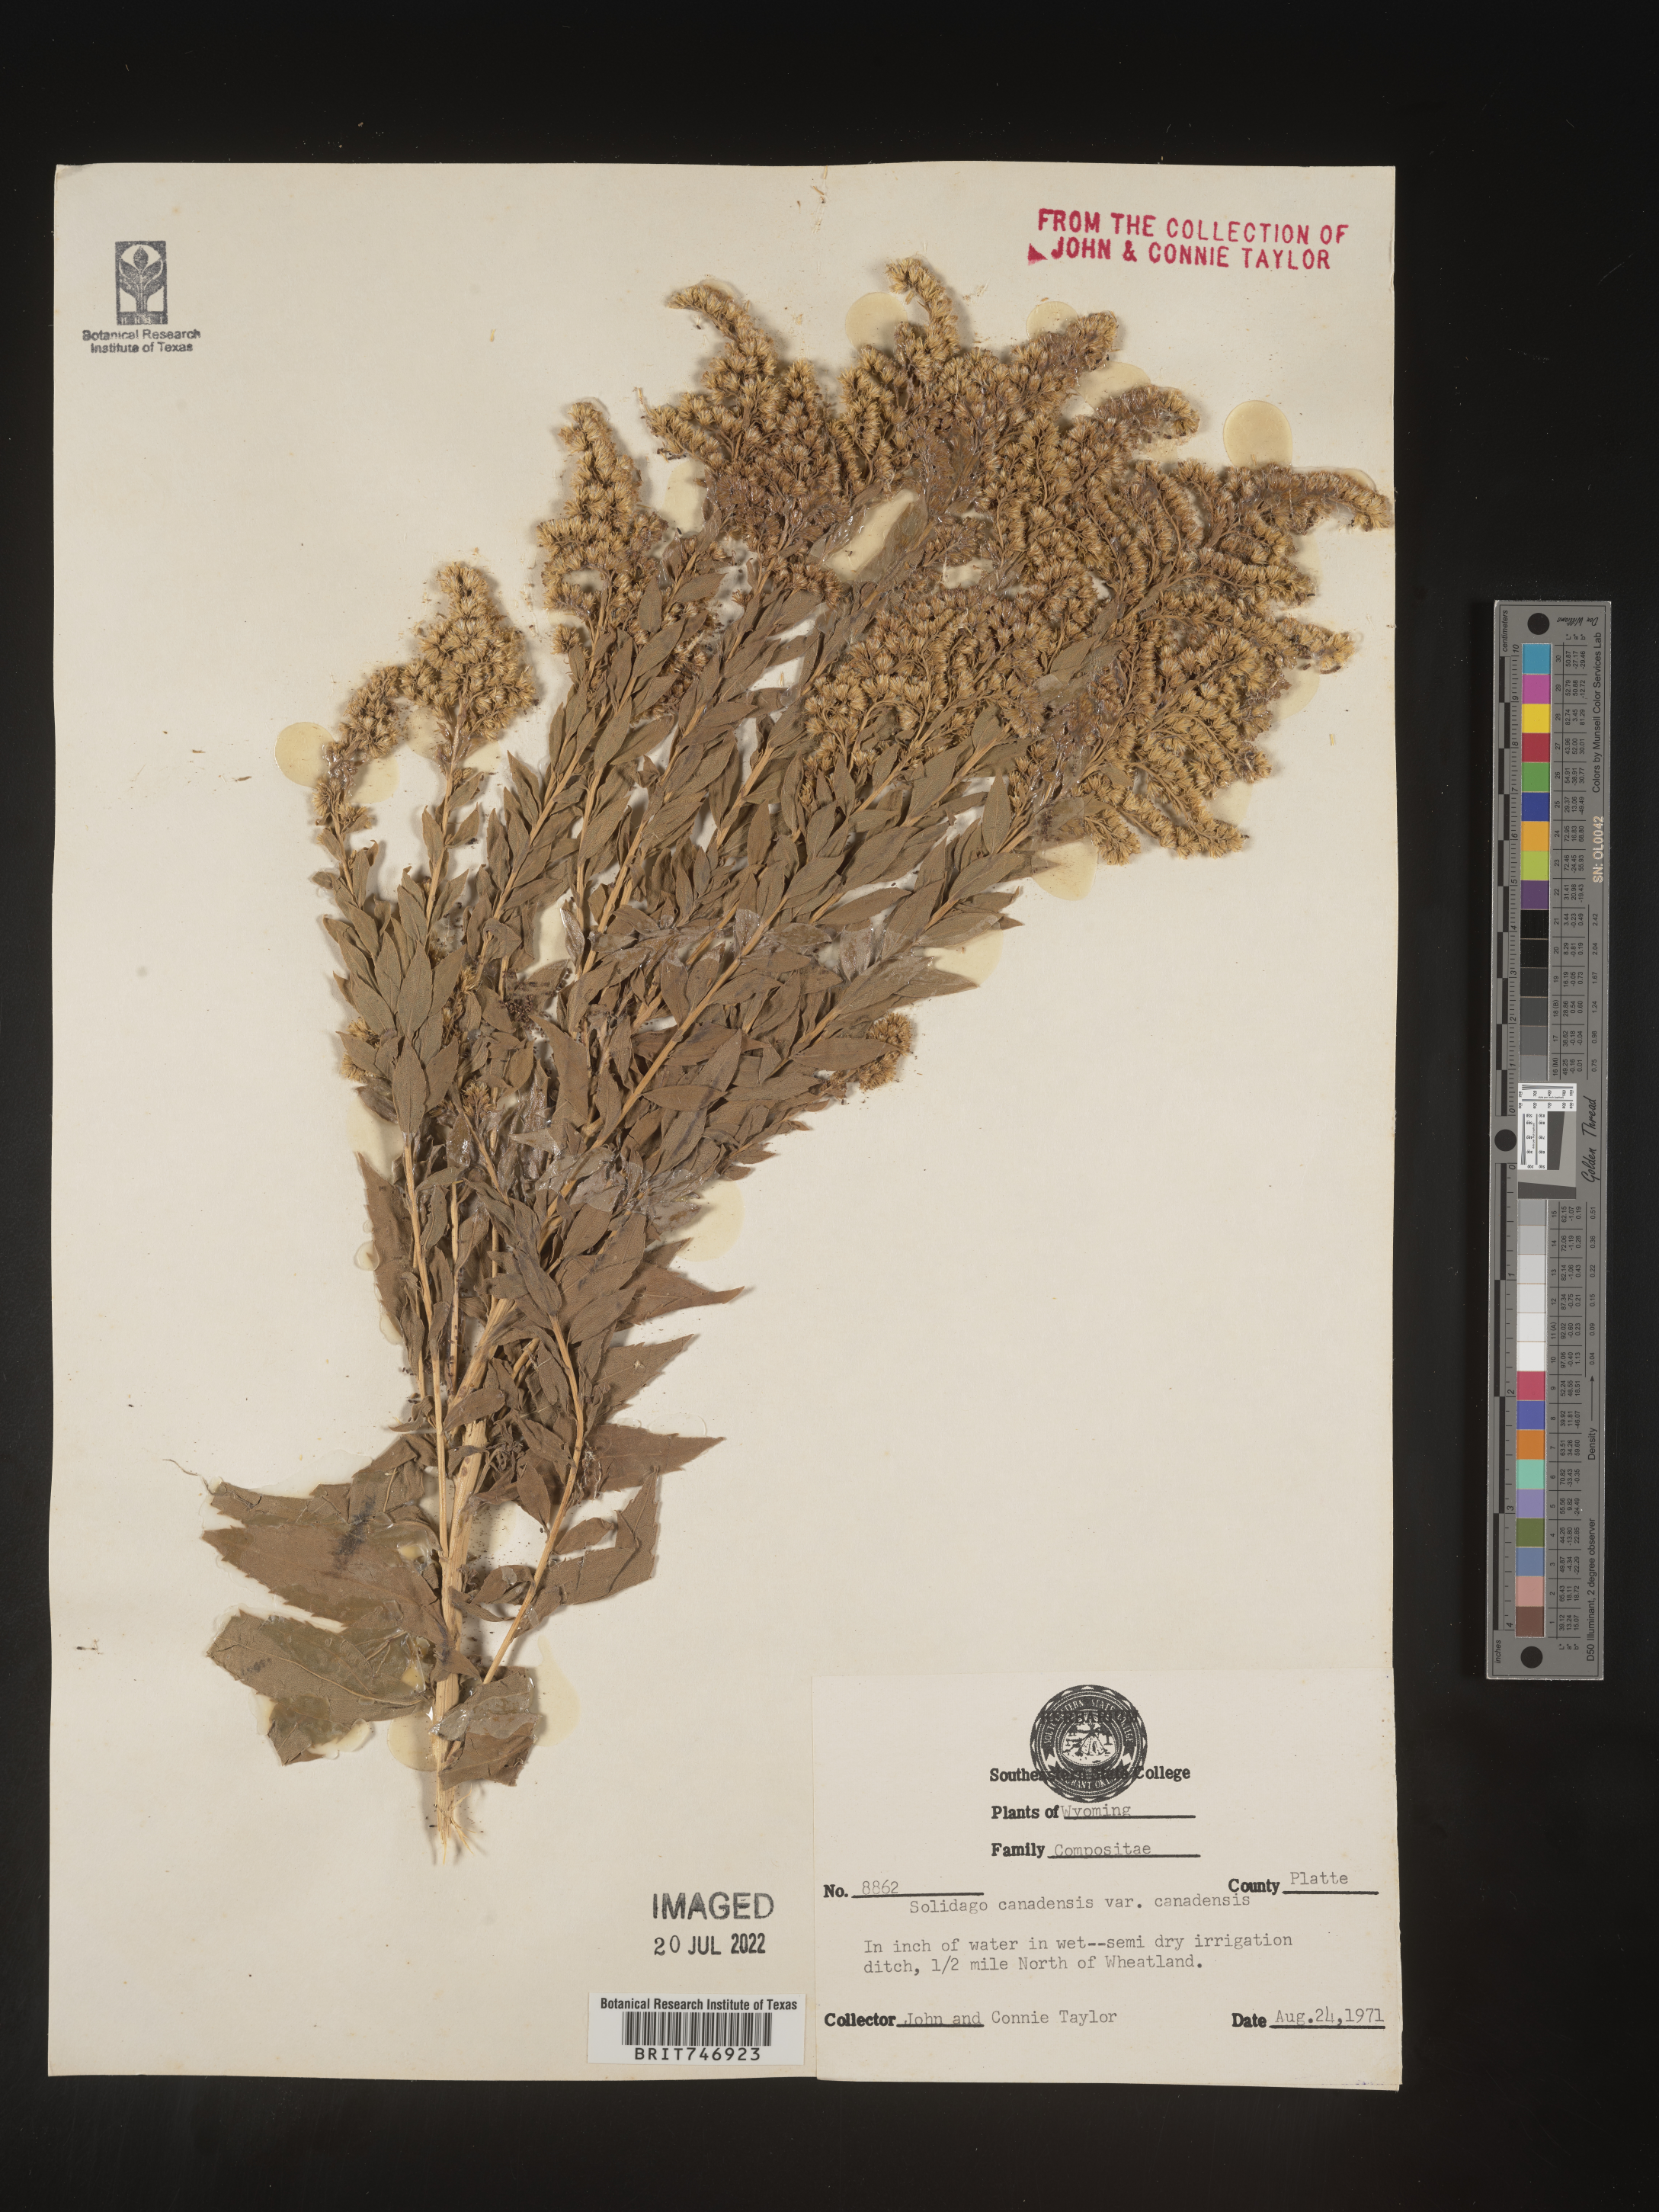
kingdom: Plantae
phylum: Tracheophyta
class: Magnoliopsida
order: Asterales
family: Asteraceae
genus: Solidago
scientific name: Solidago lepida
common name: Western canada goldenrod
